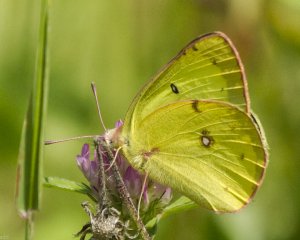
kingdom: Animalia
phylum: Arthropoda
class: Insecta
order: Lepidoptera
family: Pieridae
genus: Colias
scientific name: Colias philodice
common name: Clouded Sulphur
